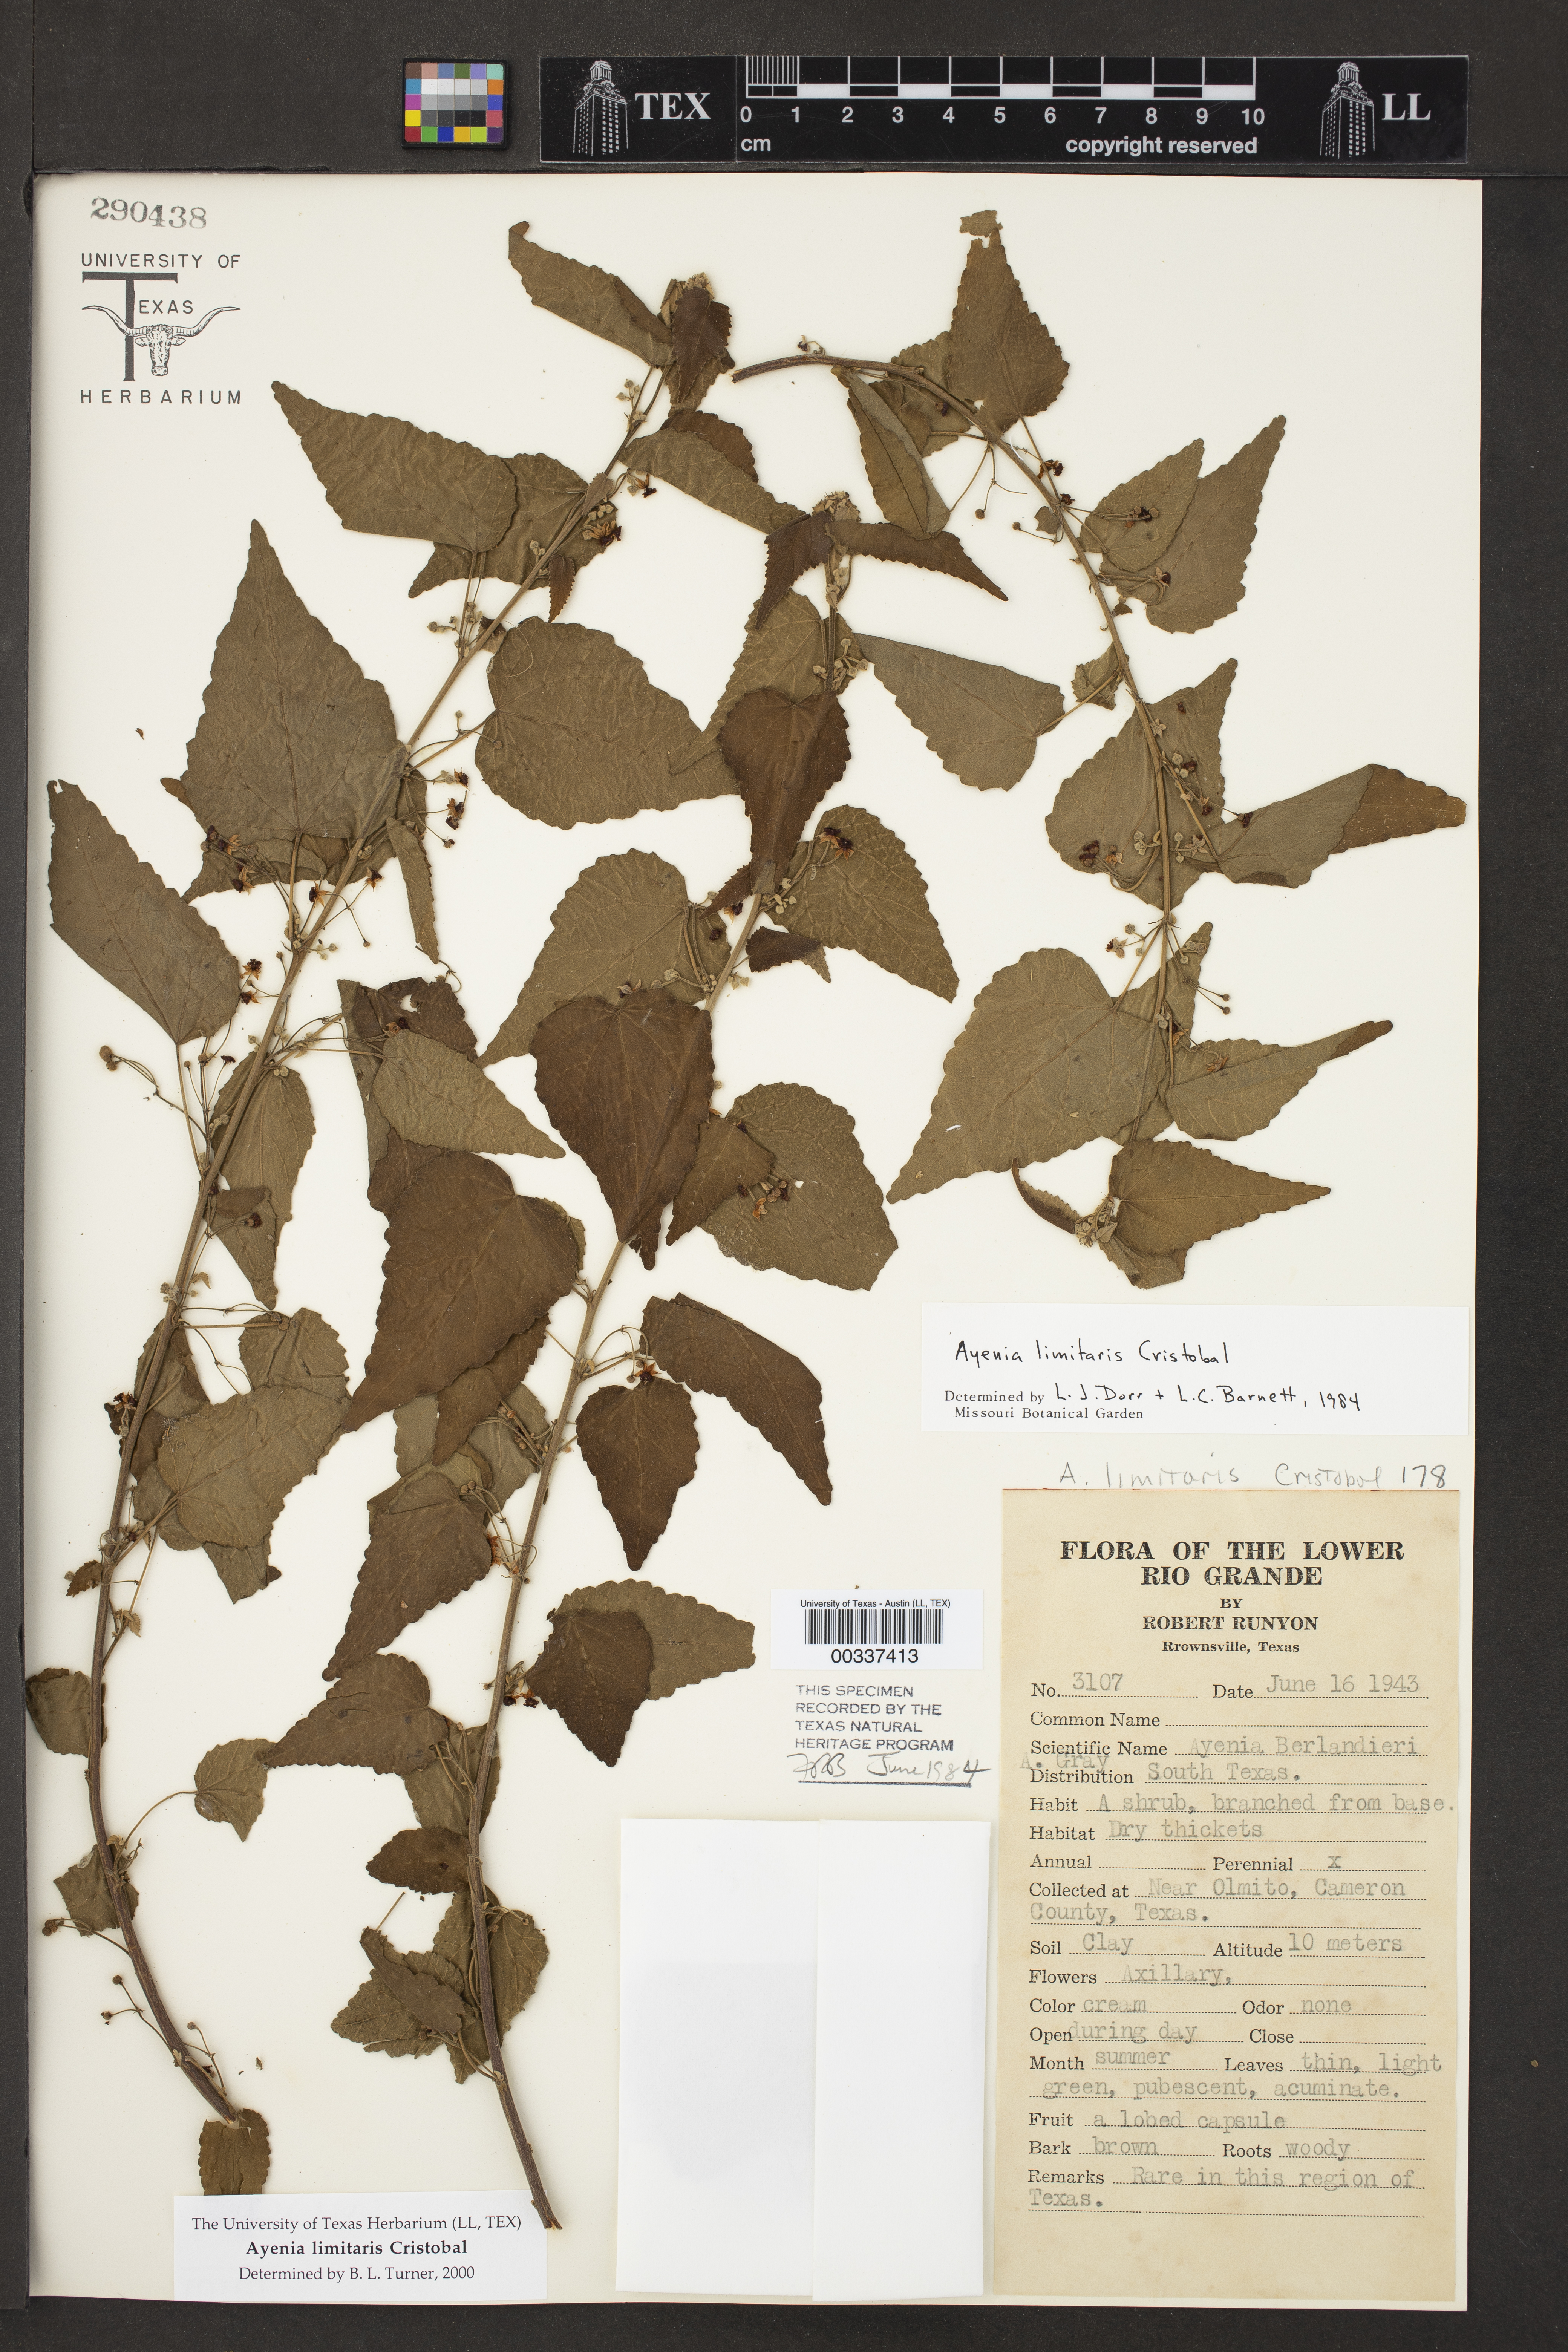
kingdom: Plantae
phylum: Tracheophyta
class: Magnoliopsida
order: Malvales
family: Malvaceae
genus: Ayenia
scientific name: Ayenia limitaris
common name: Texas ayenia
